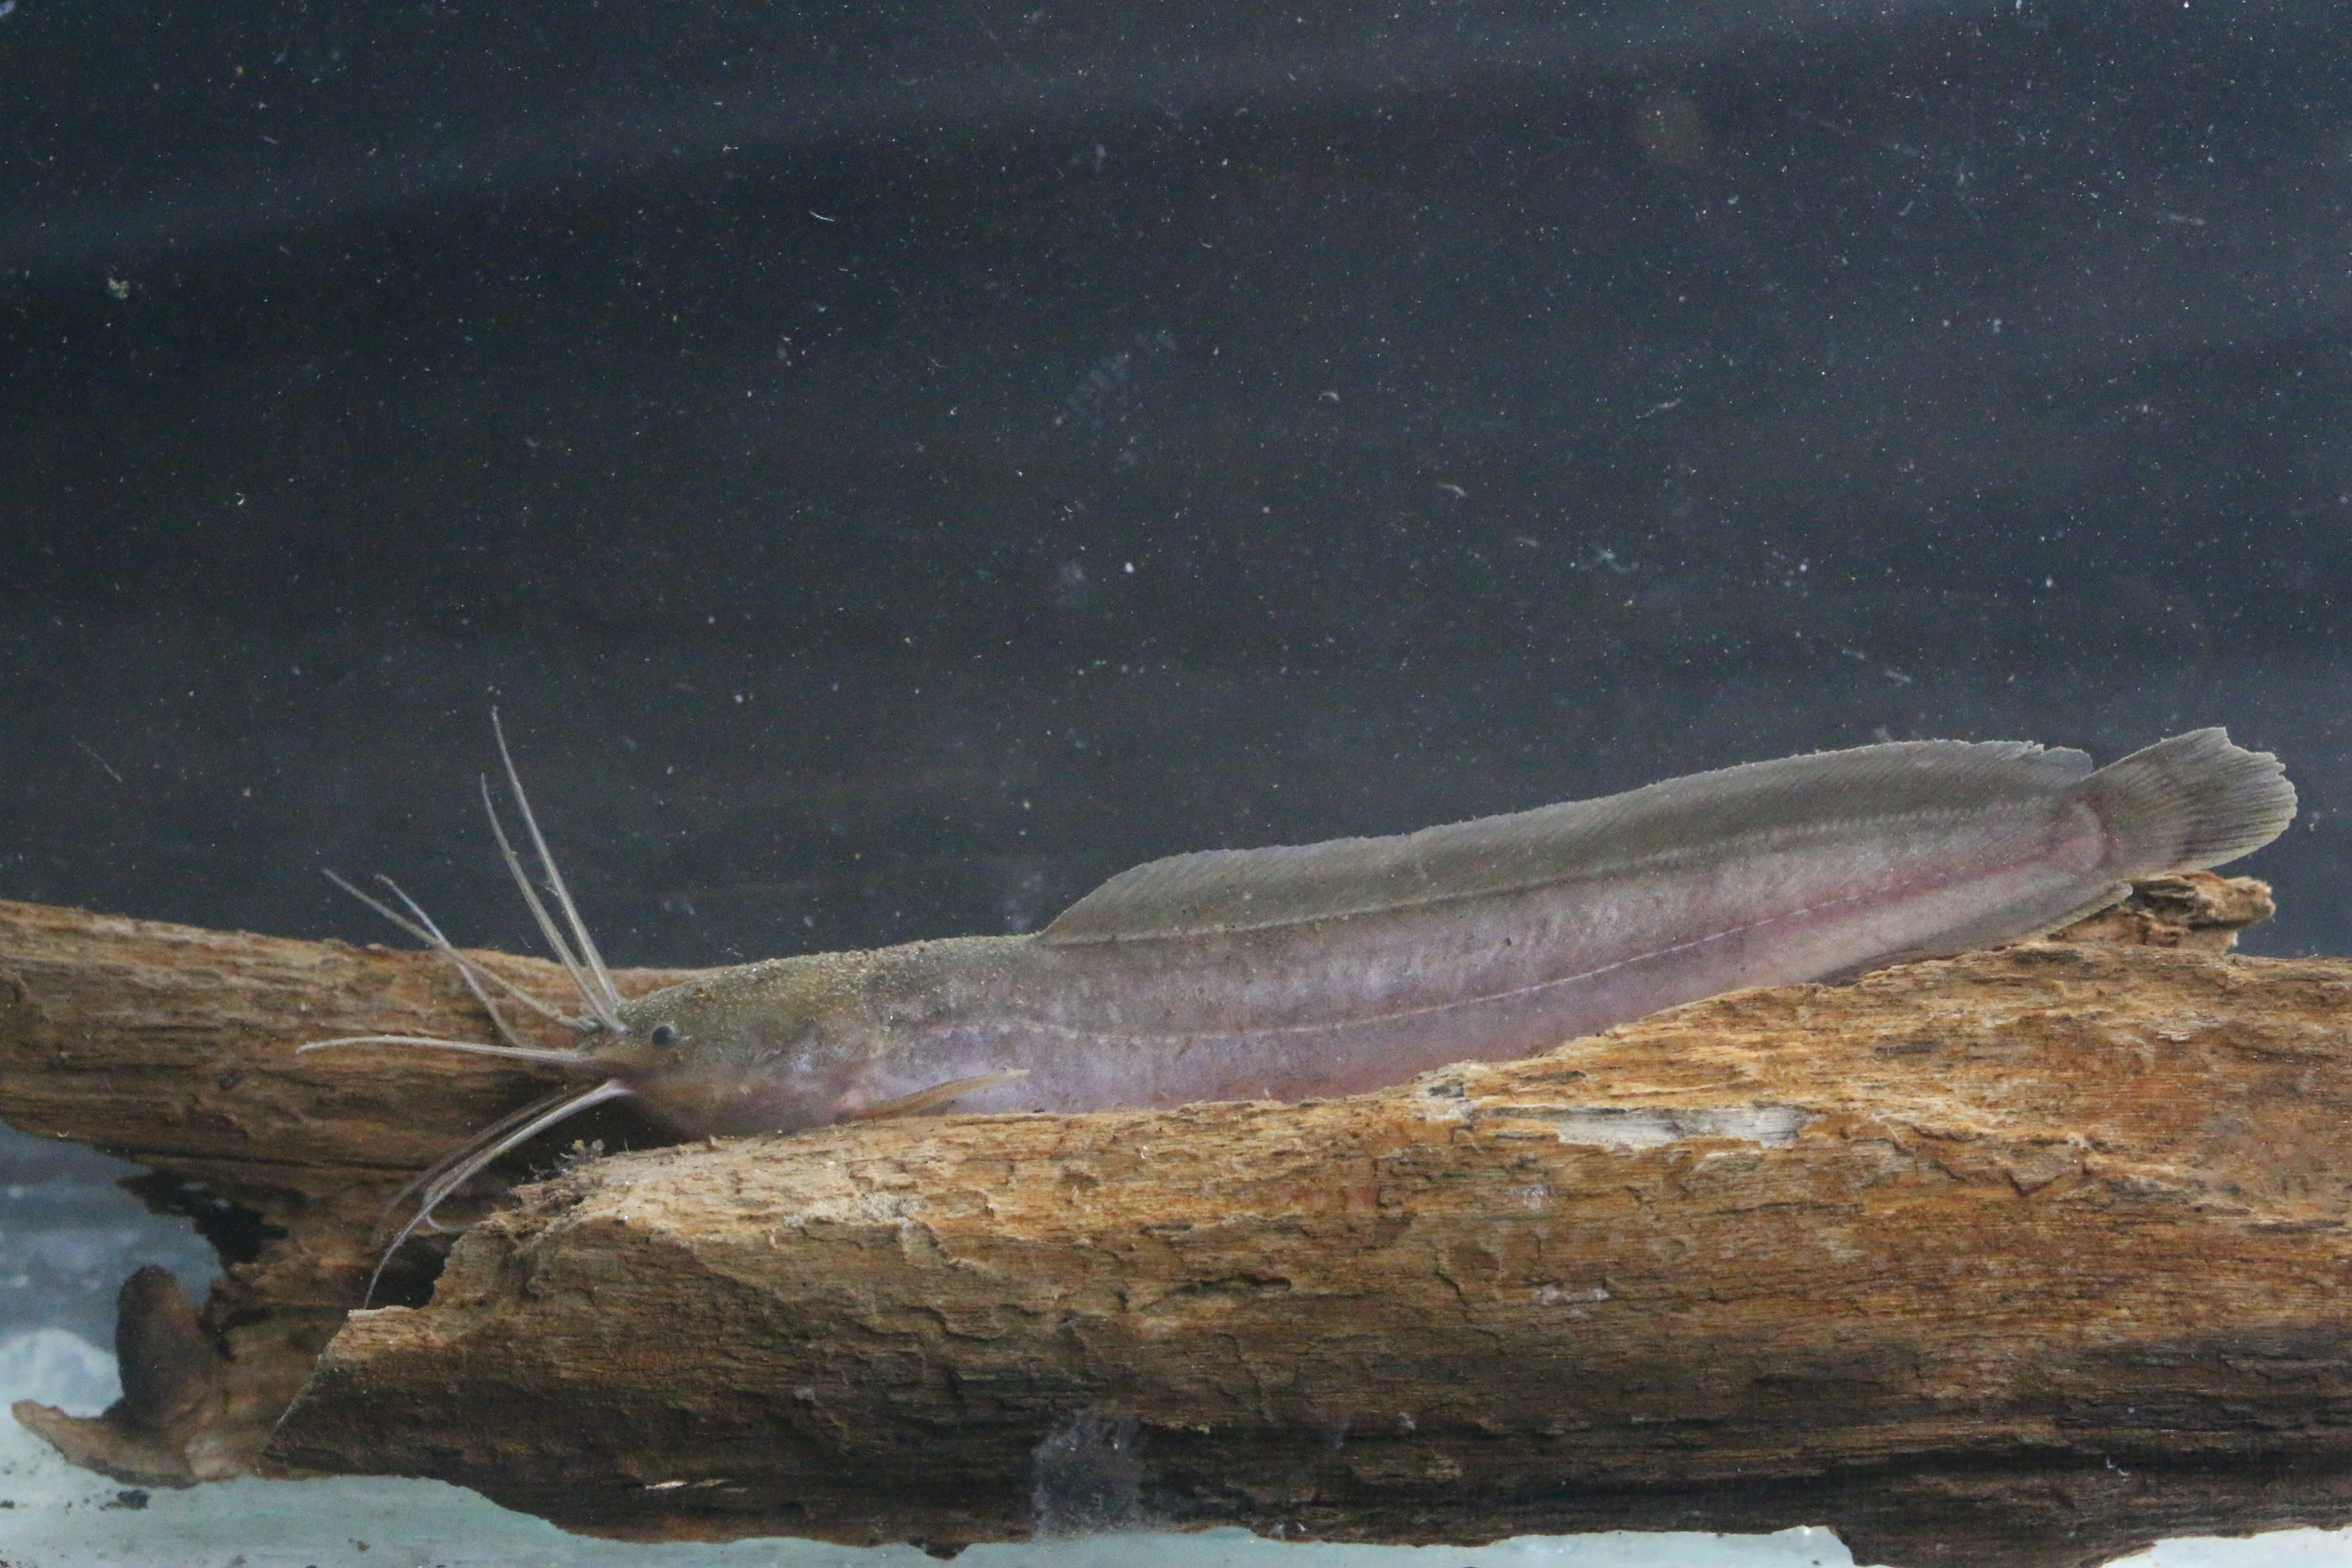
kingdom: Animalia
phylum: Chordata
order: Siluriformes
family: Clariidae
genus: Clarias
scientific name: Clarias theodorae
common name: Snake catfish
